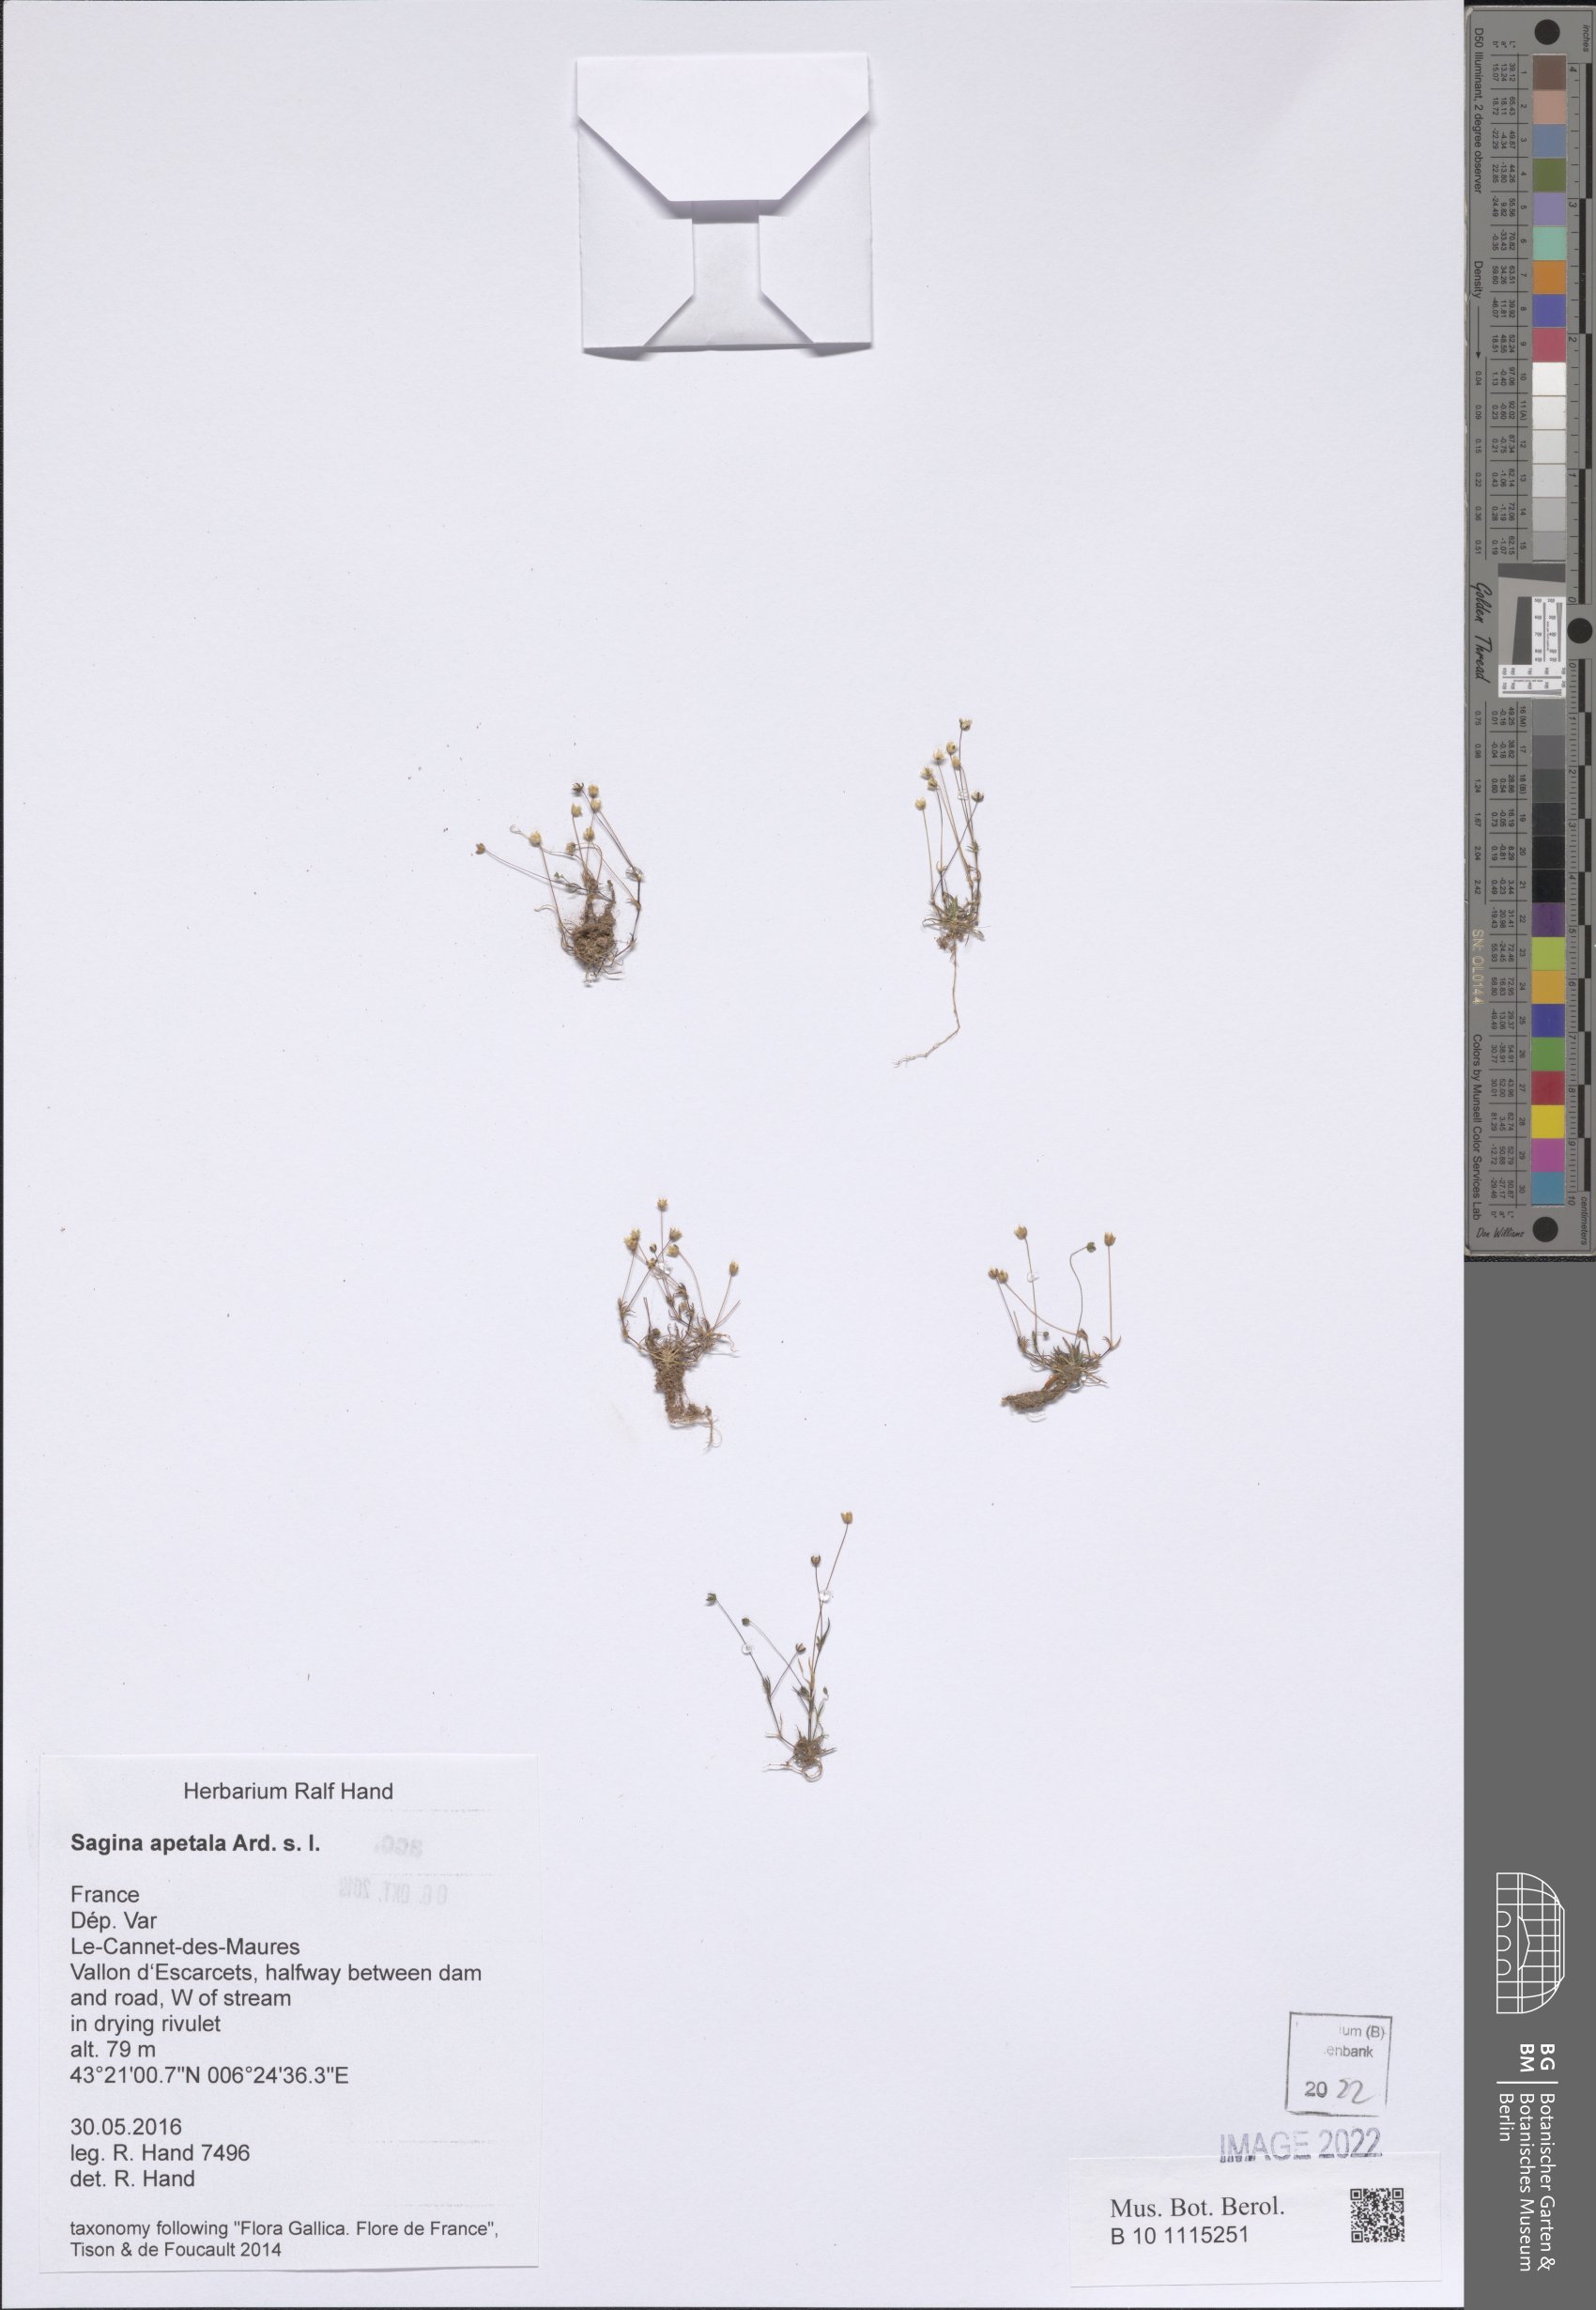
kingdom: Plantae
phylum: Tracheophyta
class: Magnoliopsida
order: Caryophyllales
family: Caryophyllaceae
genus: Sagina
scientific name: Sagina apetala
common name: Annual pearlwort
